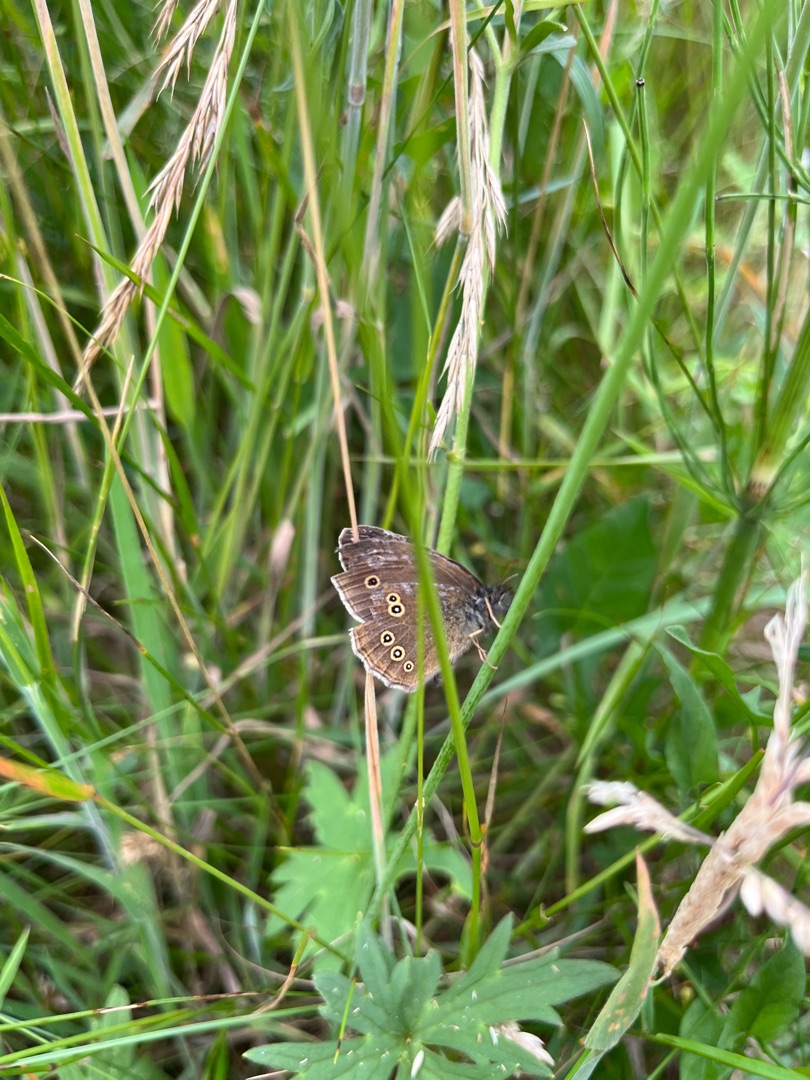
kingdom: Animalia
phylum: Arthropoda
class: Insecta
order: Lepidoptera
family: Nymphalidae
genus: Aphantopus
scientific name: Aphantopus hyperantus
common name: Engrandøje
